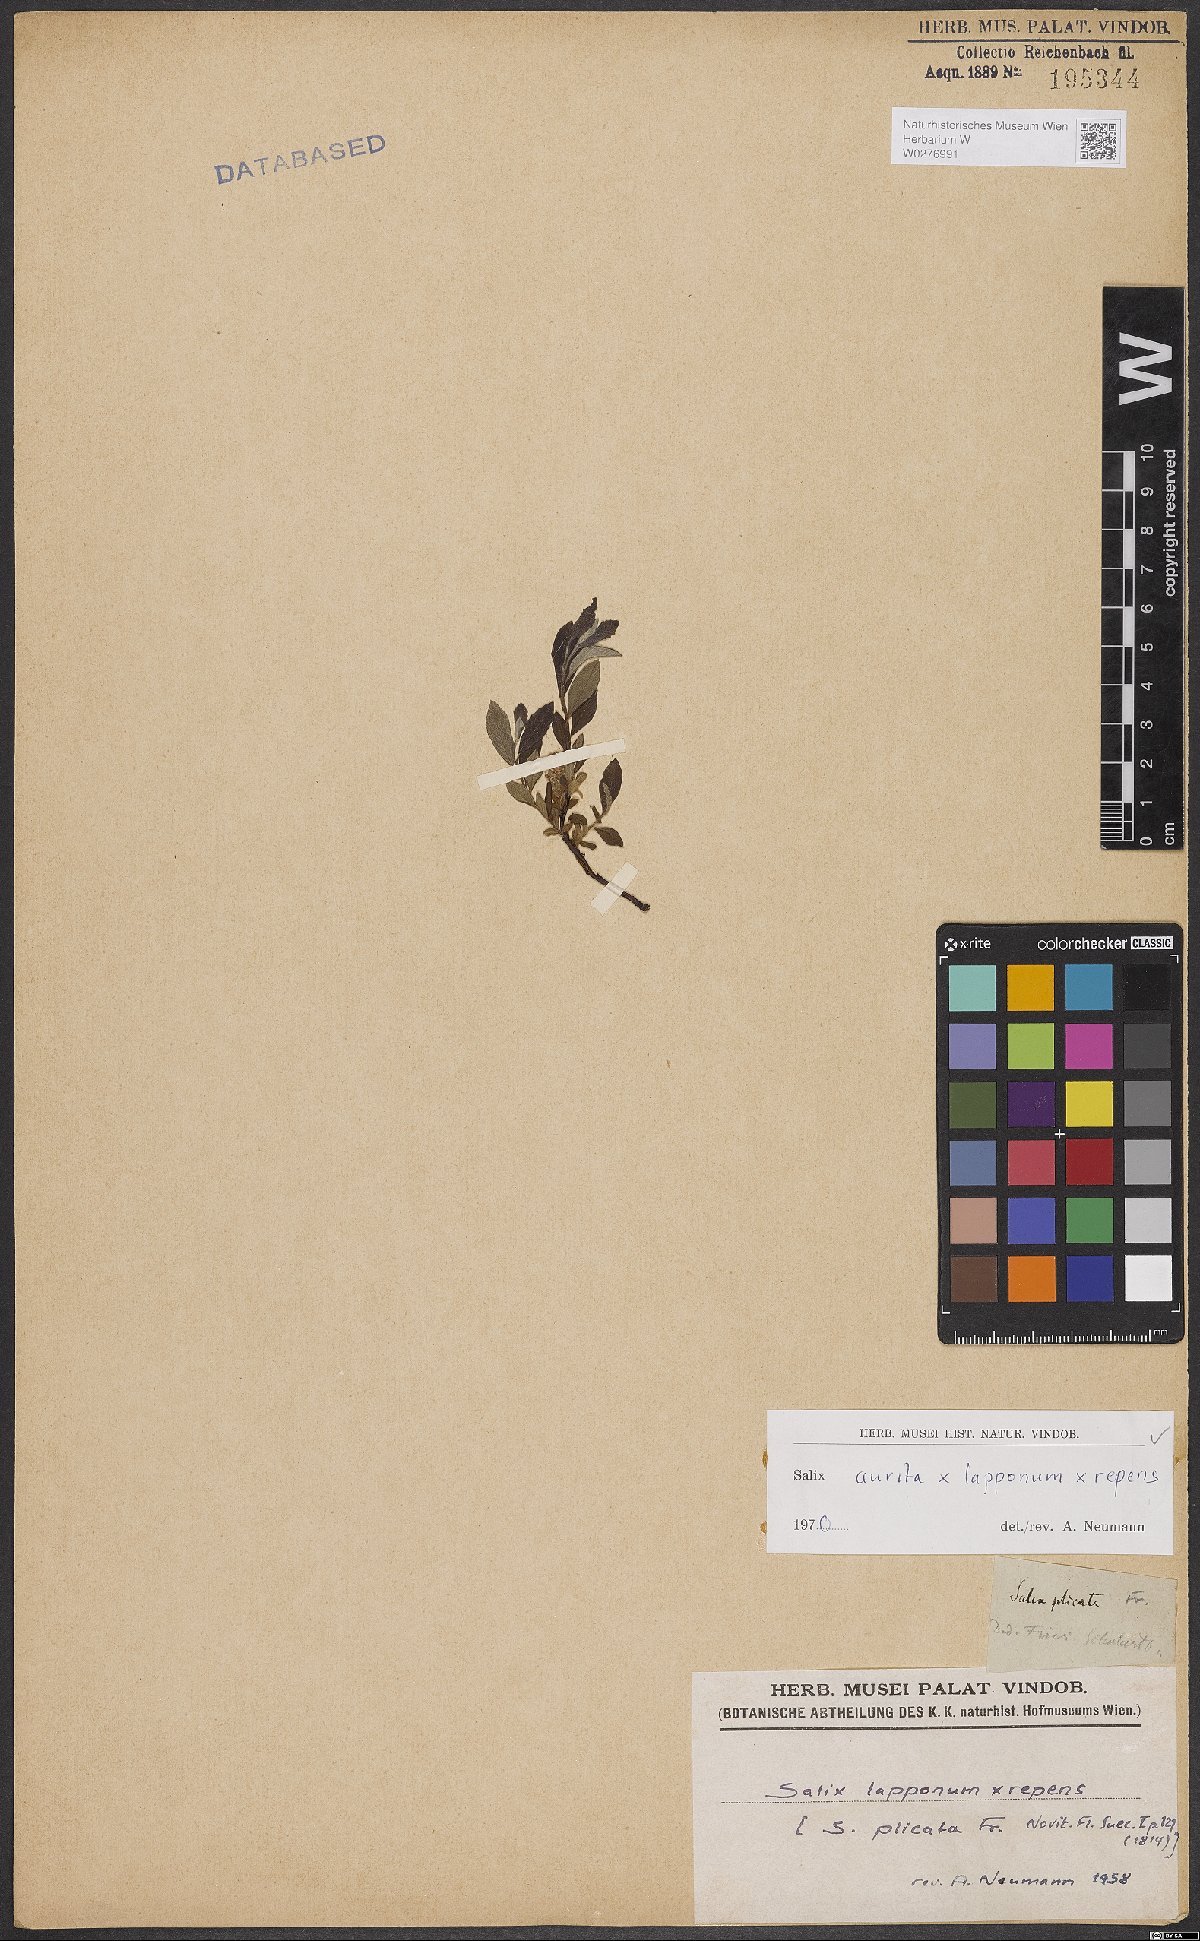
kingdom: Plantae
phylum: Tracheophyta
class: Magnoliopsida
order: Malpighiales
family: Salicaceae
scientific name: Salicaceae
